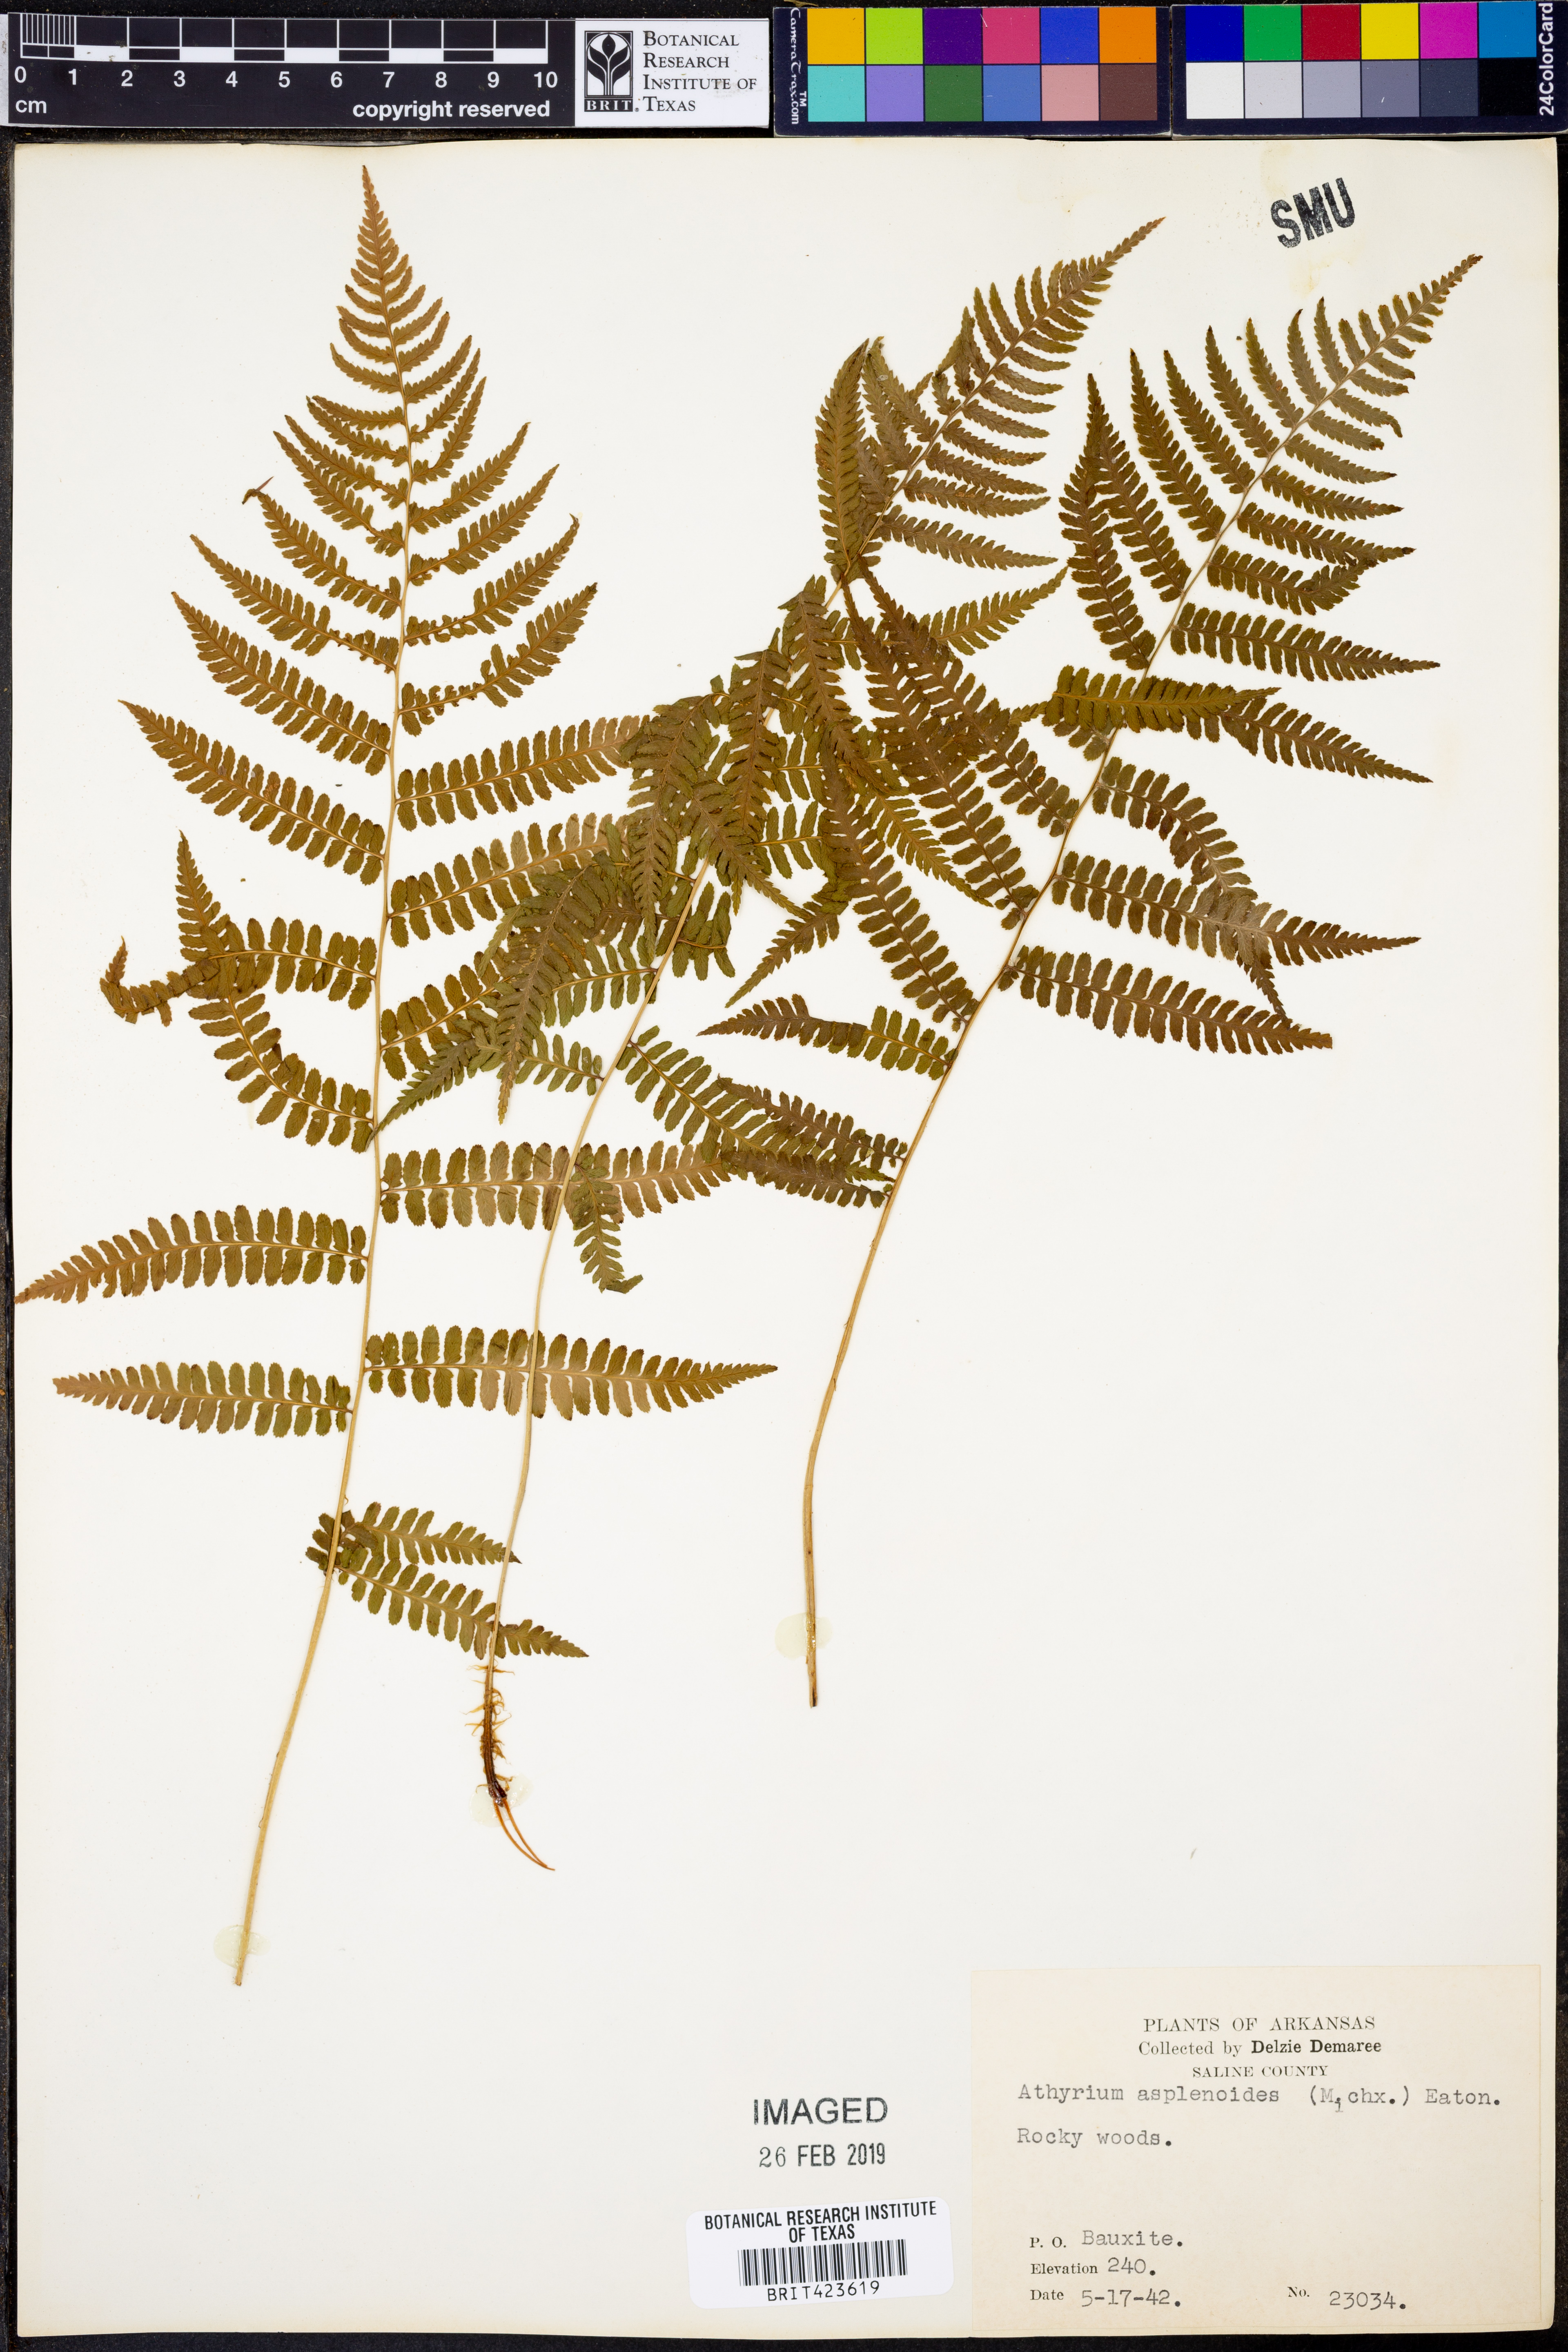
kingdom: Plantae
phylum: Tracheophyta
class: Polypodiopsida
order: Polypodiales
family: Athyriaceae
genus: Athyrium
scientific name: Athyrium asplenoides
